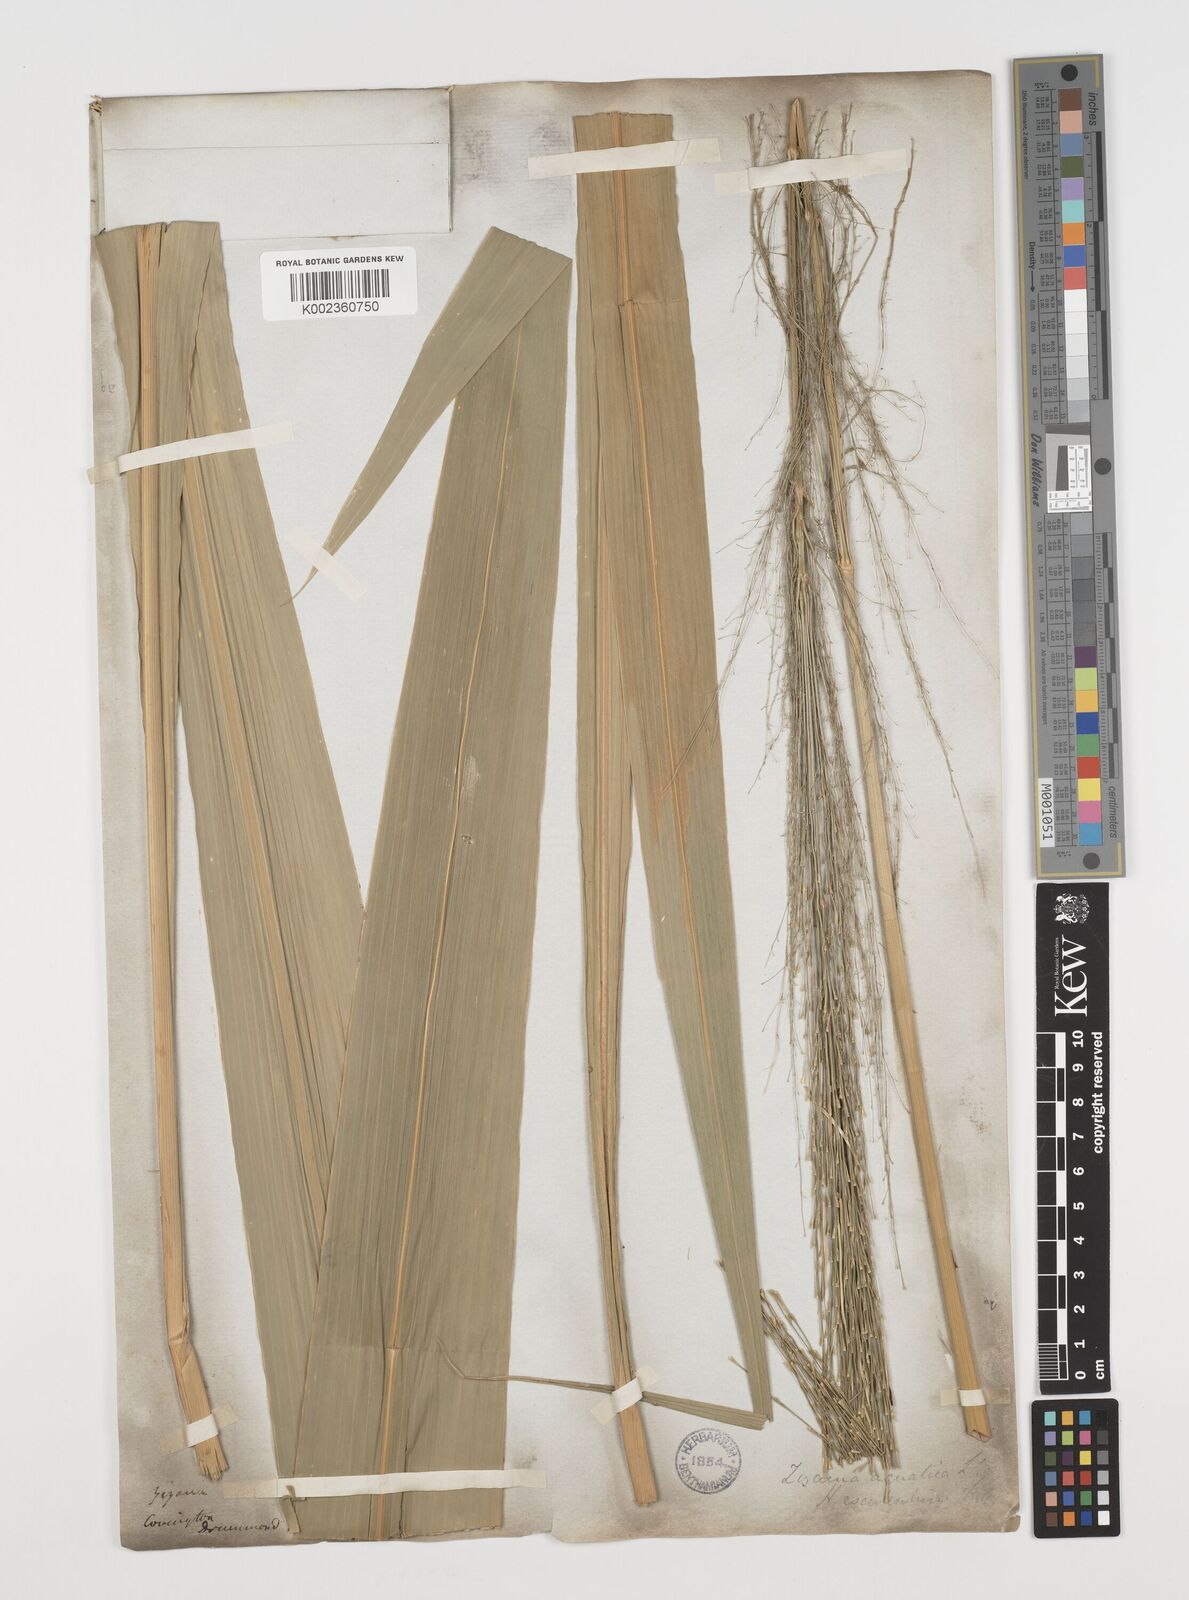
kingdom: Plantae
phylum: Tracheophyta
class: Liliopsida
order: Poales
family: Poaceae
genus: Zizania
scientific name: Zizania aquatica
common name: Annual wildrice
